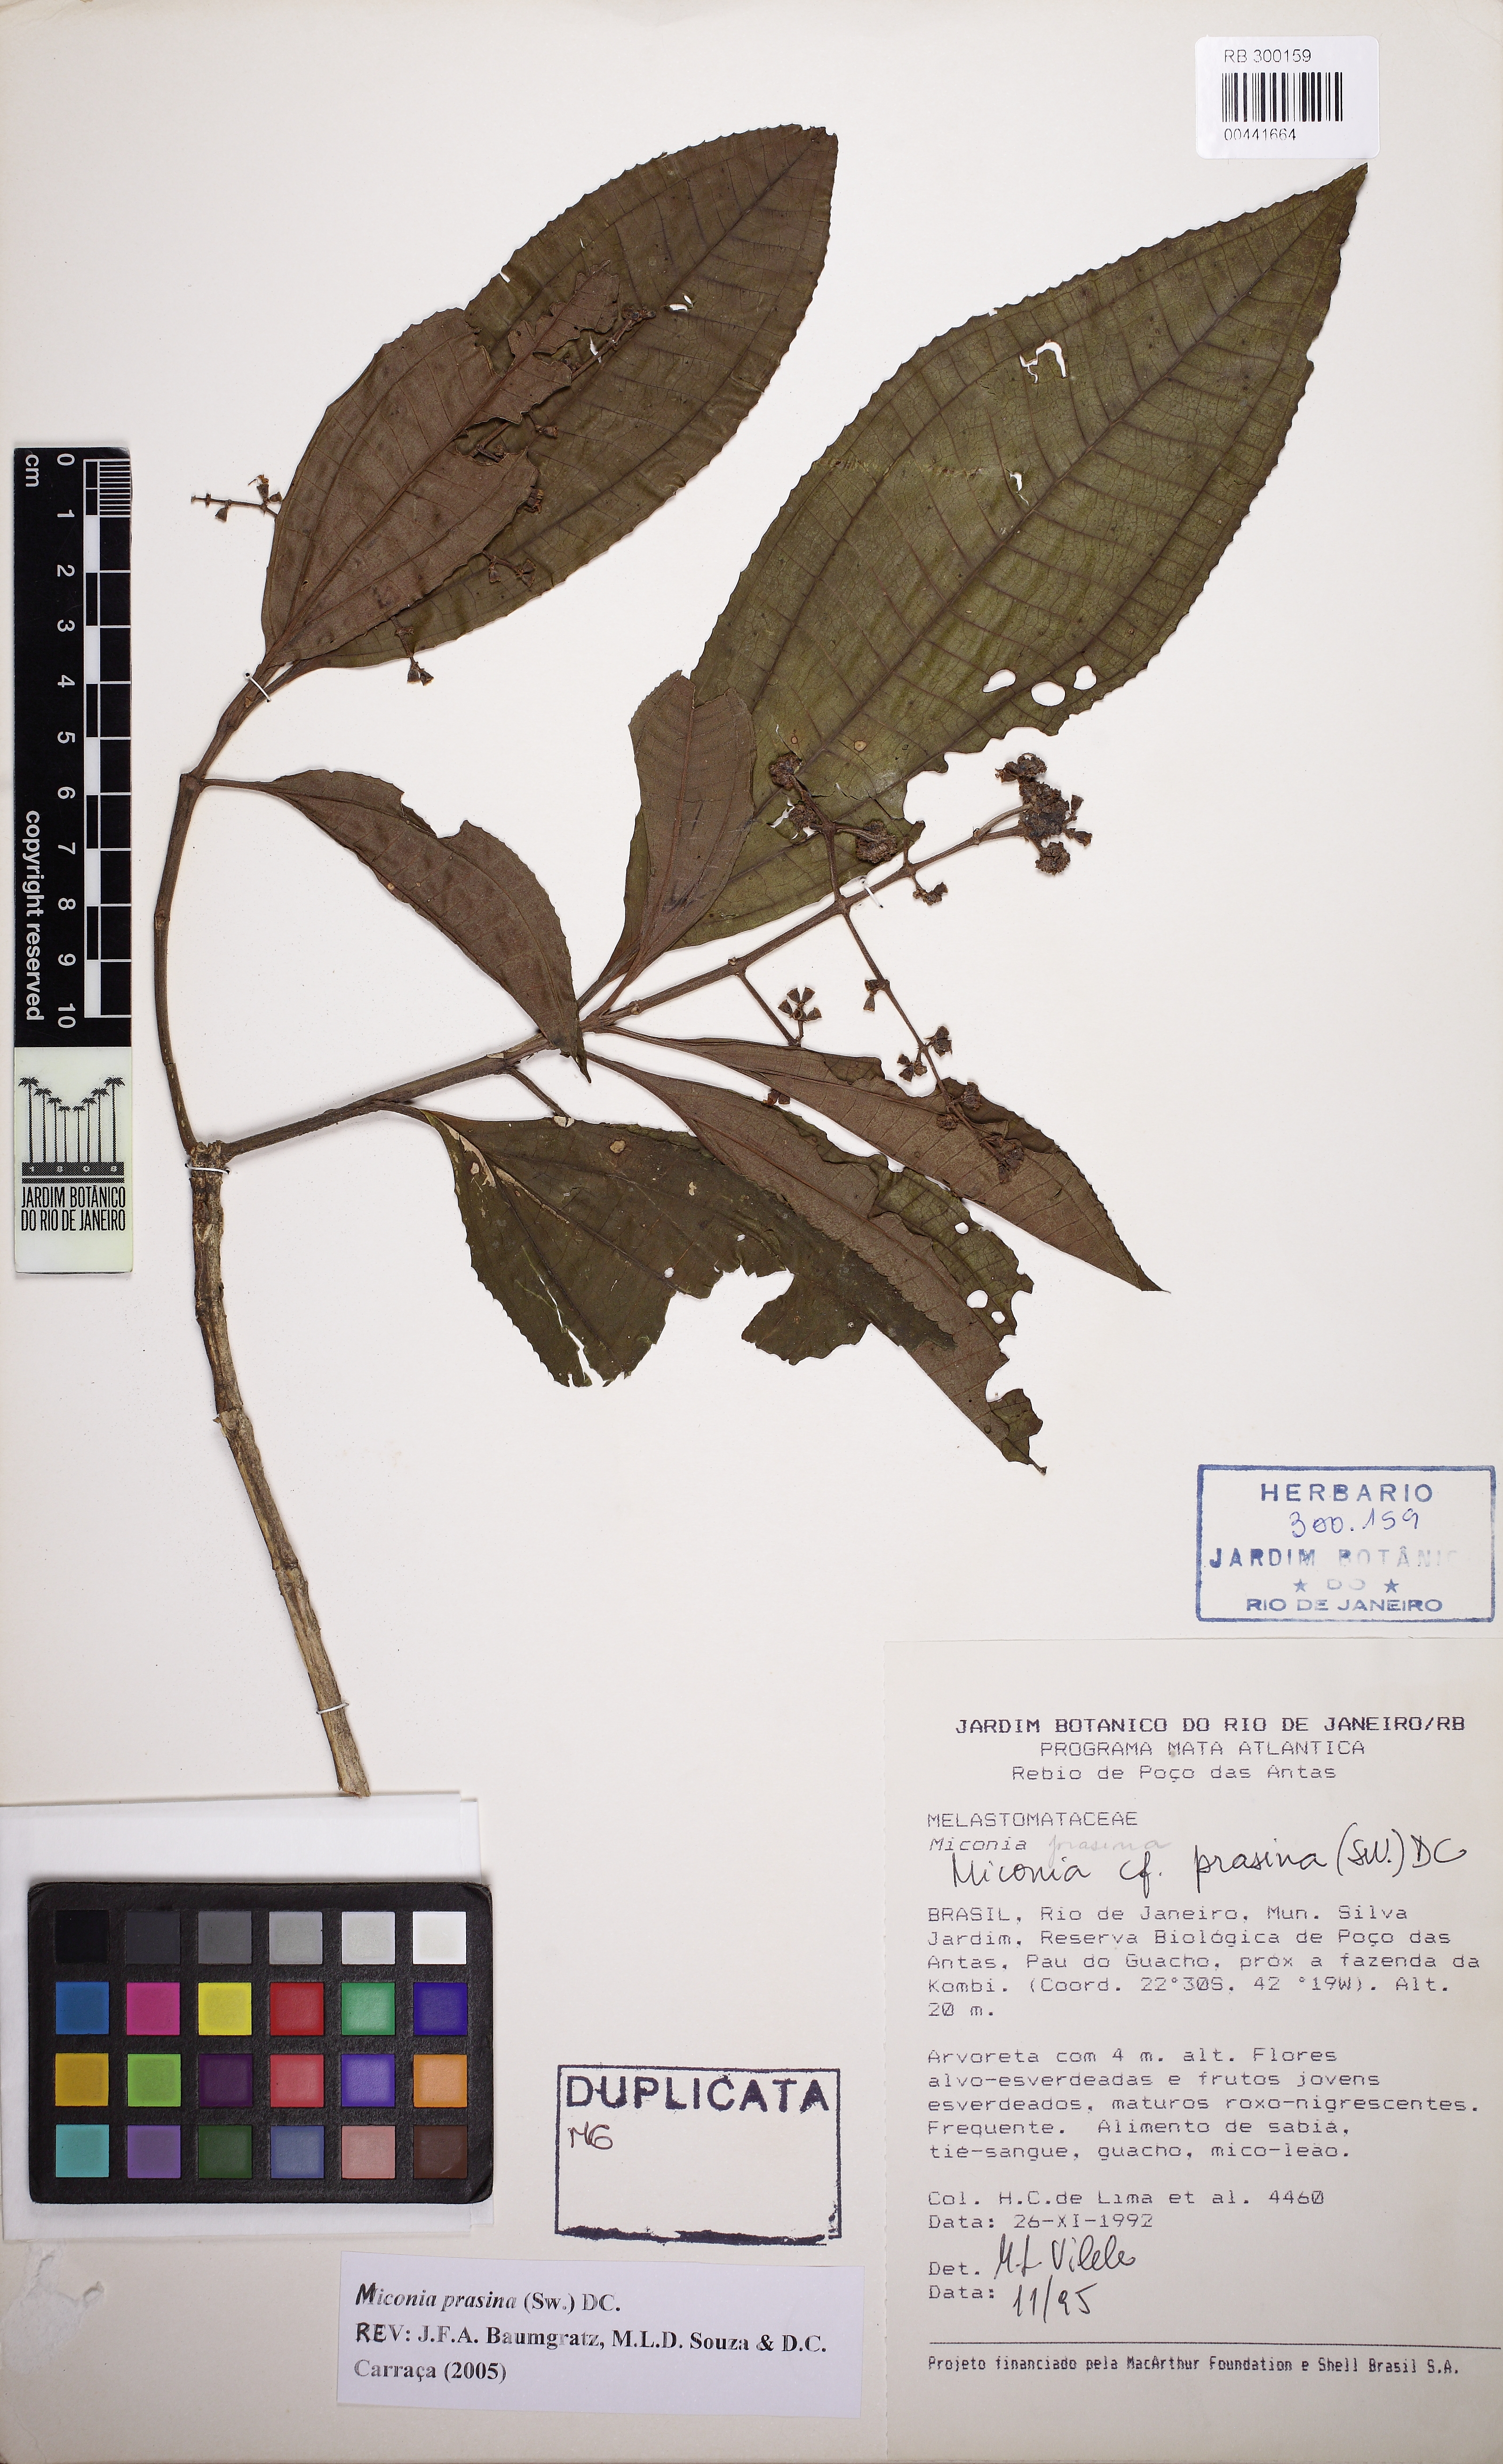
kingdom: Plantae
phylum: Tracheophyta
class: Magnoliopsida
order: Myrtales
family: Melastomataceae
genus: Miconia
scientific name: Miconia prasina
